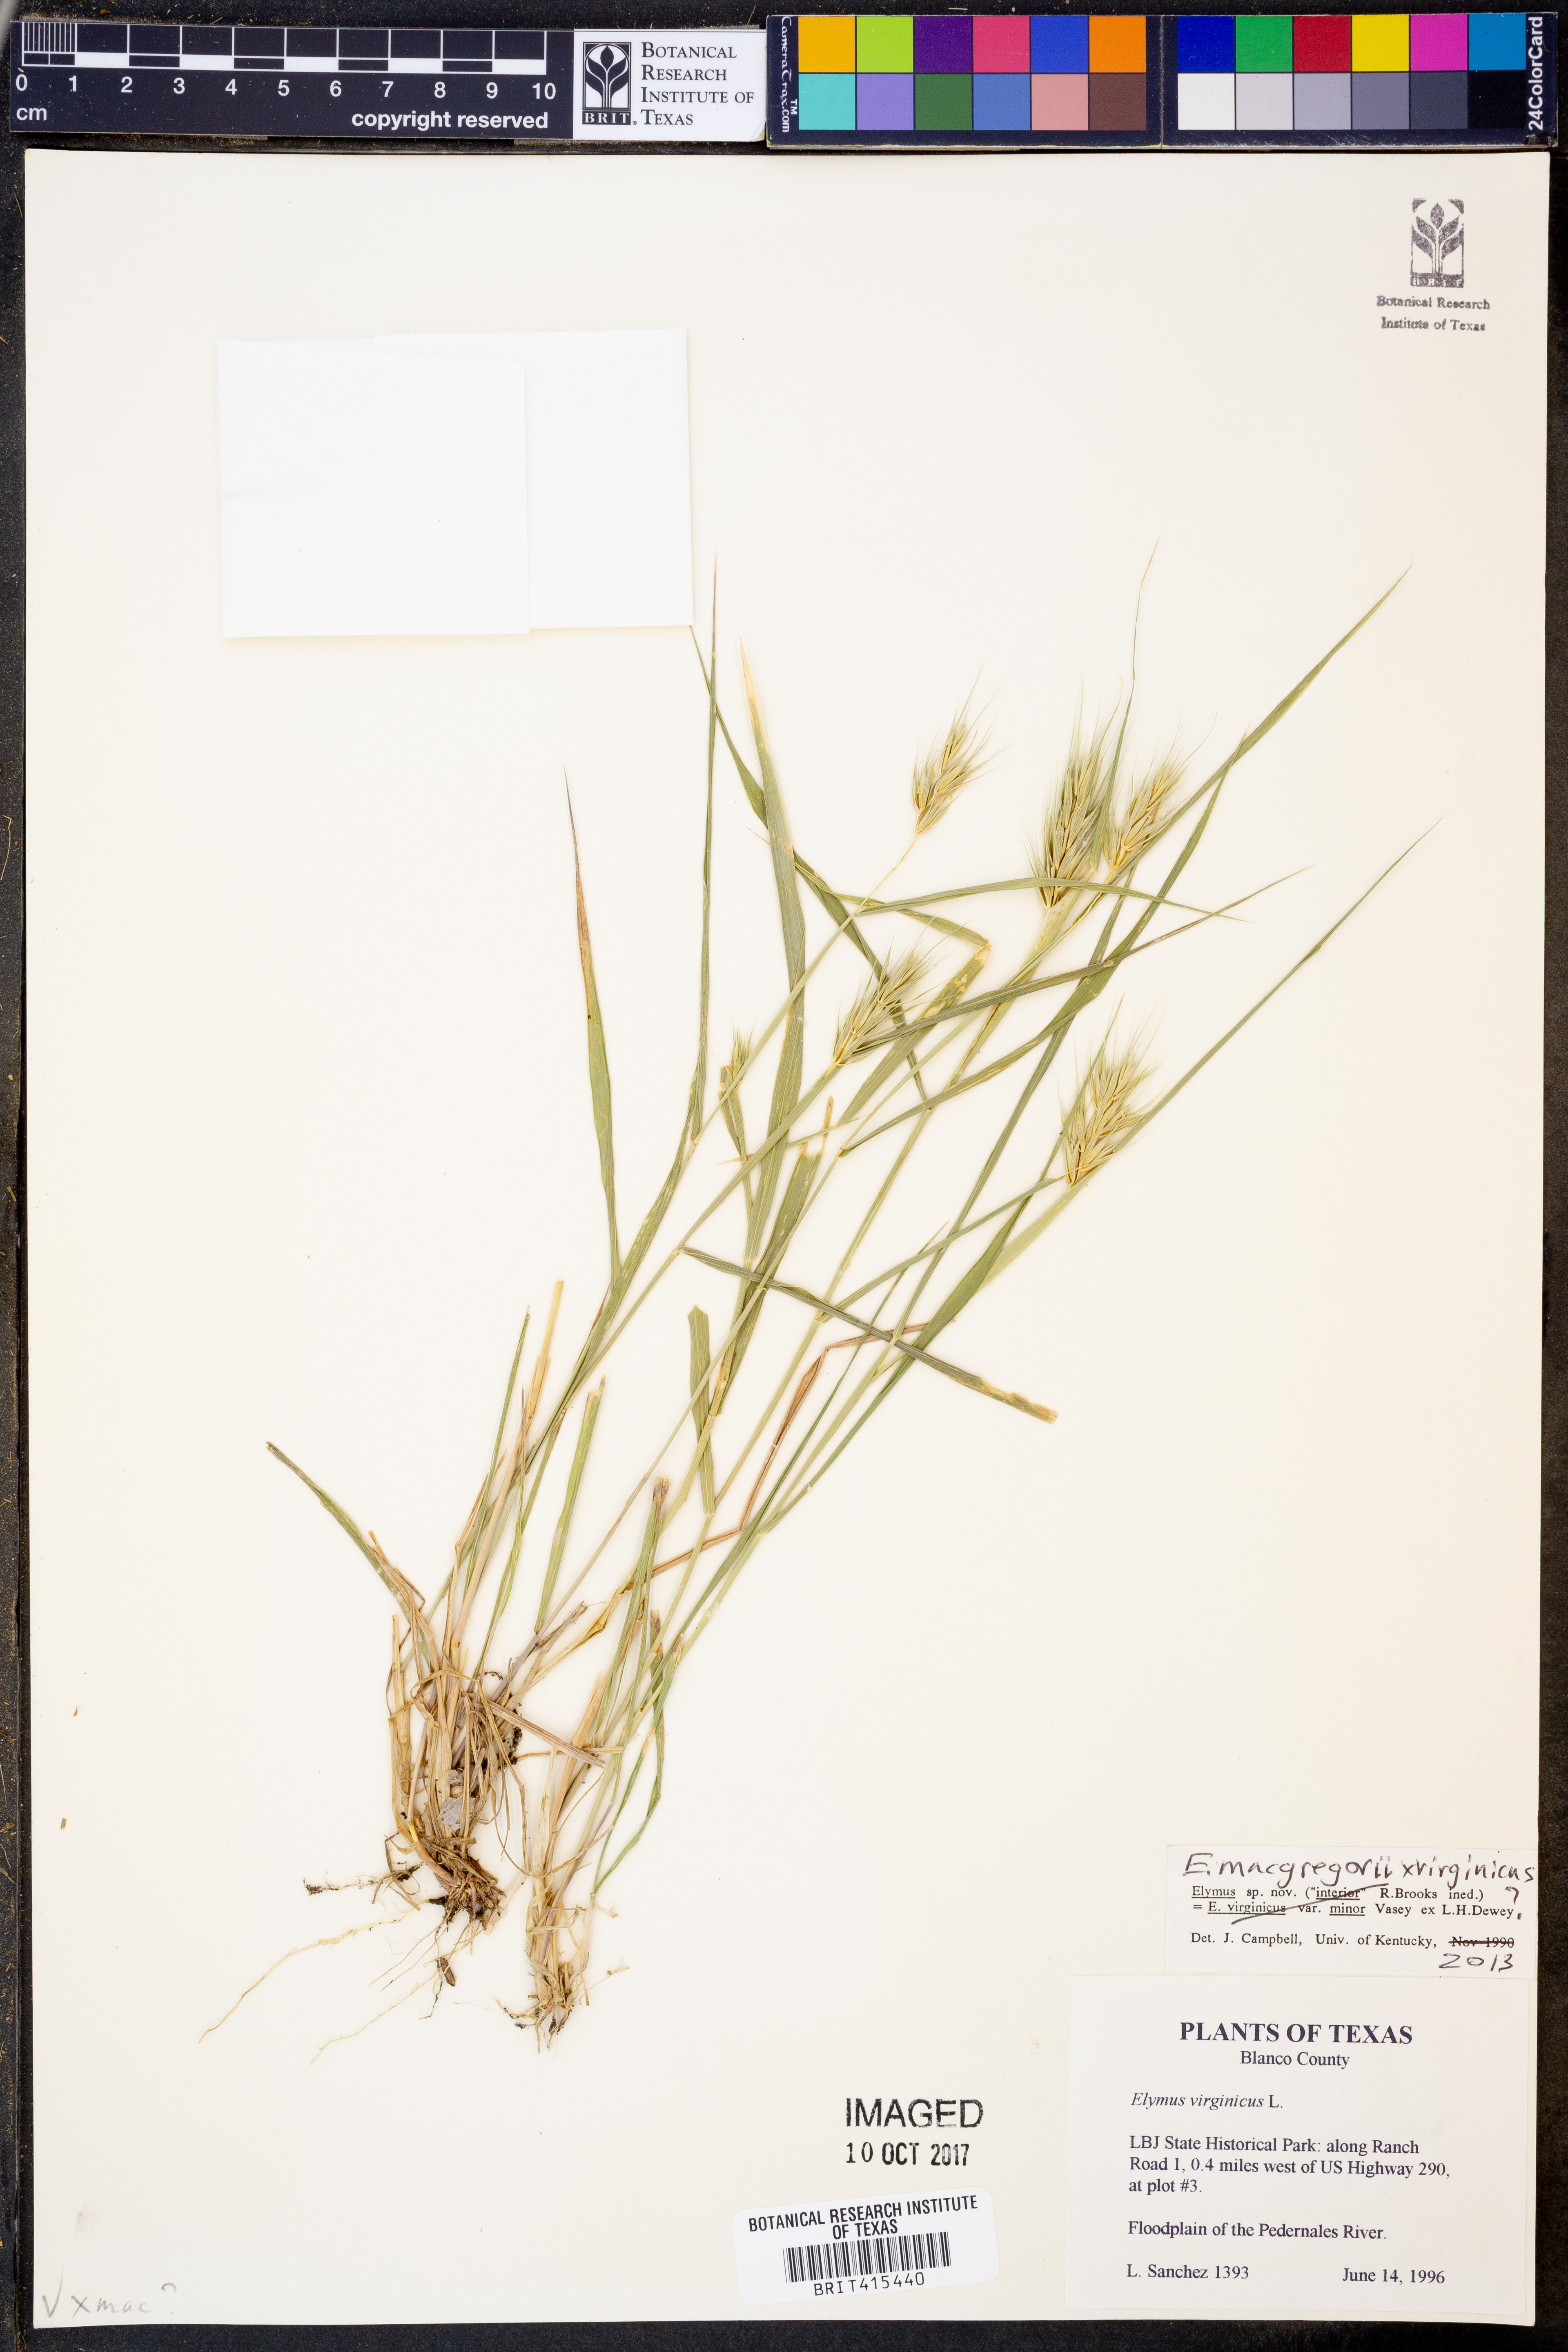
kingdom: Plantae
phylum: Tracheophyta
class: Liliopsida
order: Poales
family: Poaceae
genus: Elymus
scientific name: Elymus virginicus
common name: Common eastern wildrye
